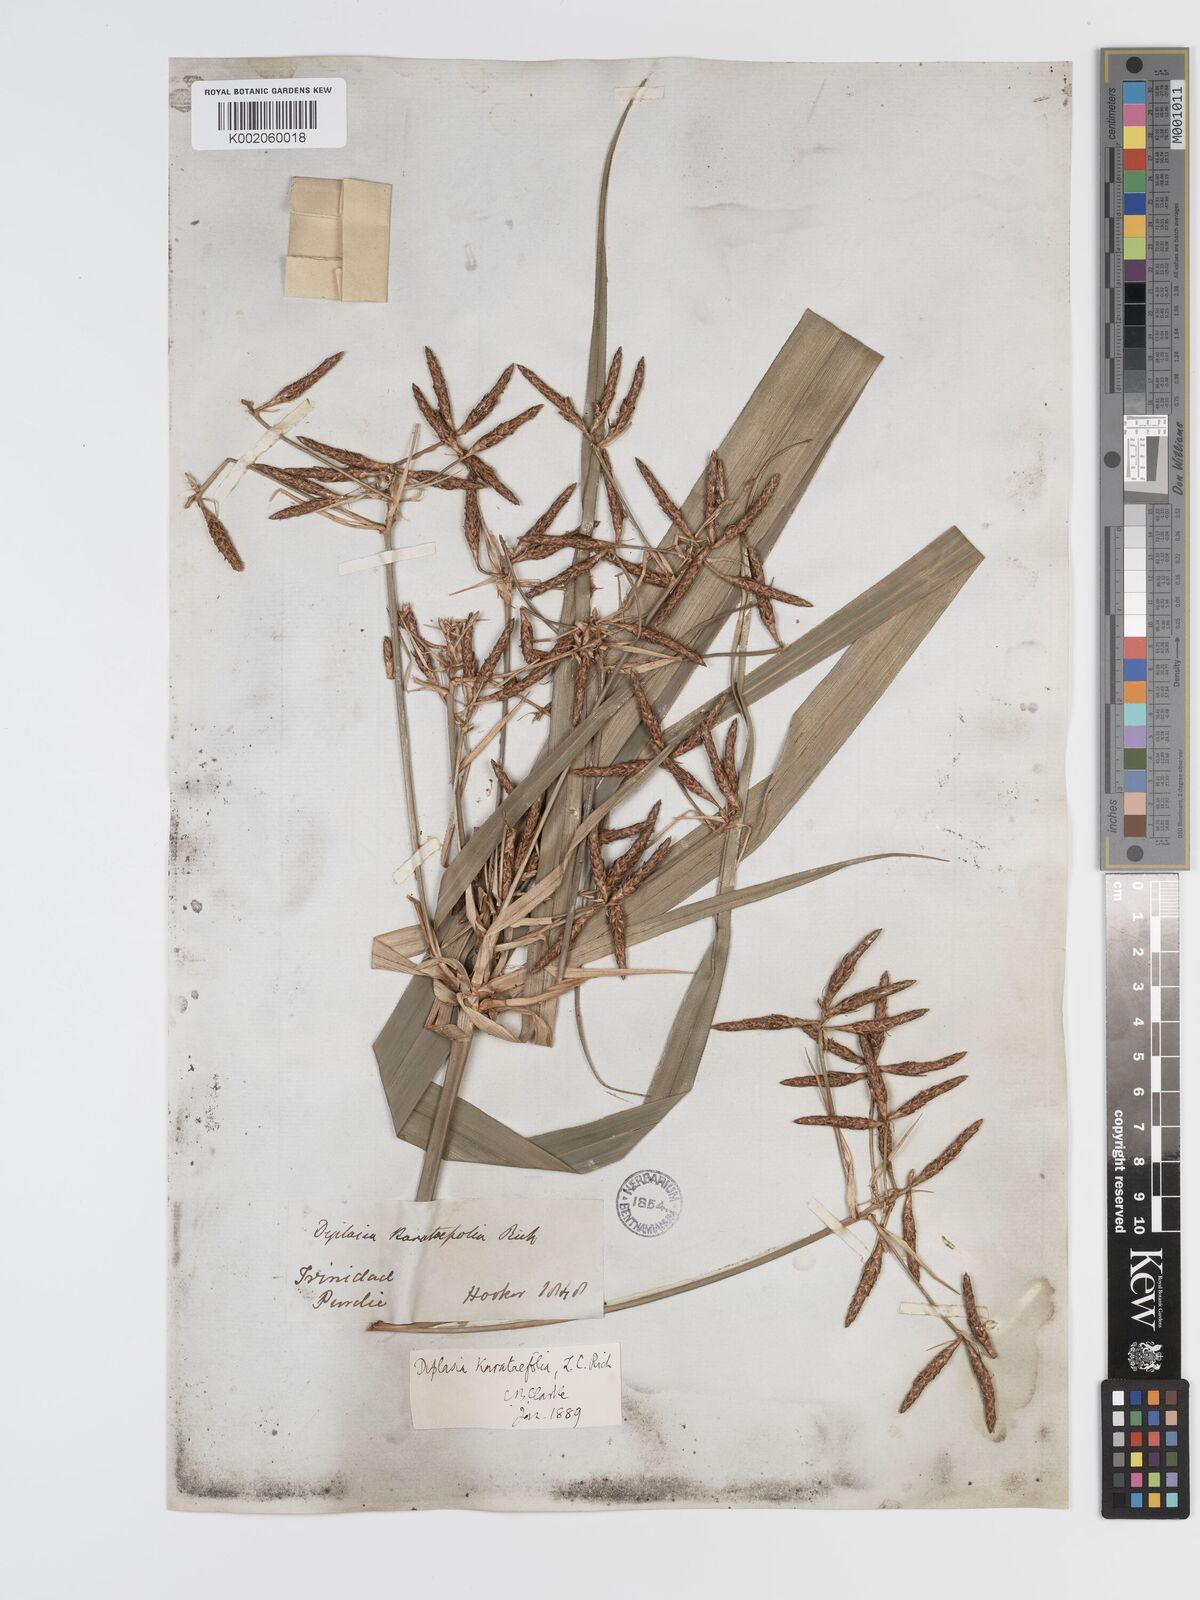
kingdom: Plantae
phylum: Tracheophyta
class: Liliopsida
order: Poales
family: Cyperaceae
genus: Diplasia
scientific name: Diplasia karatifolia
